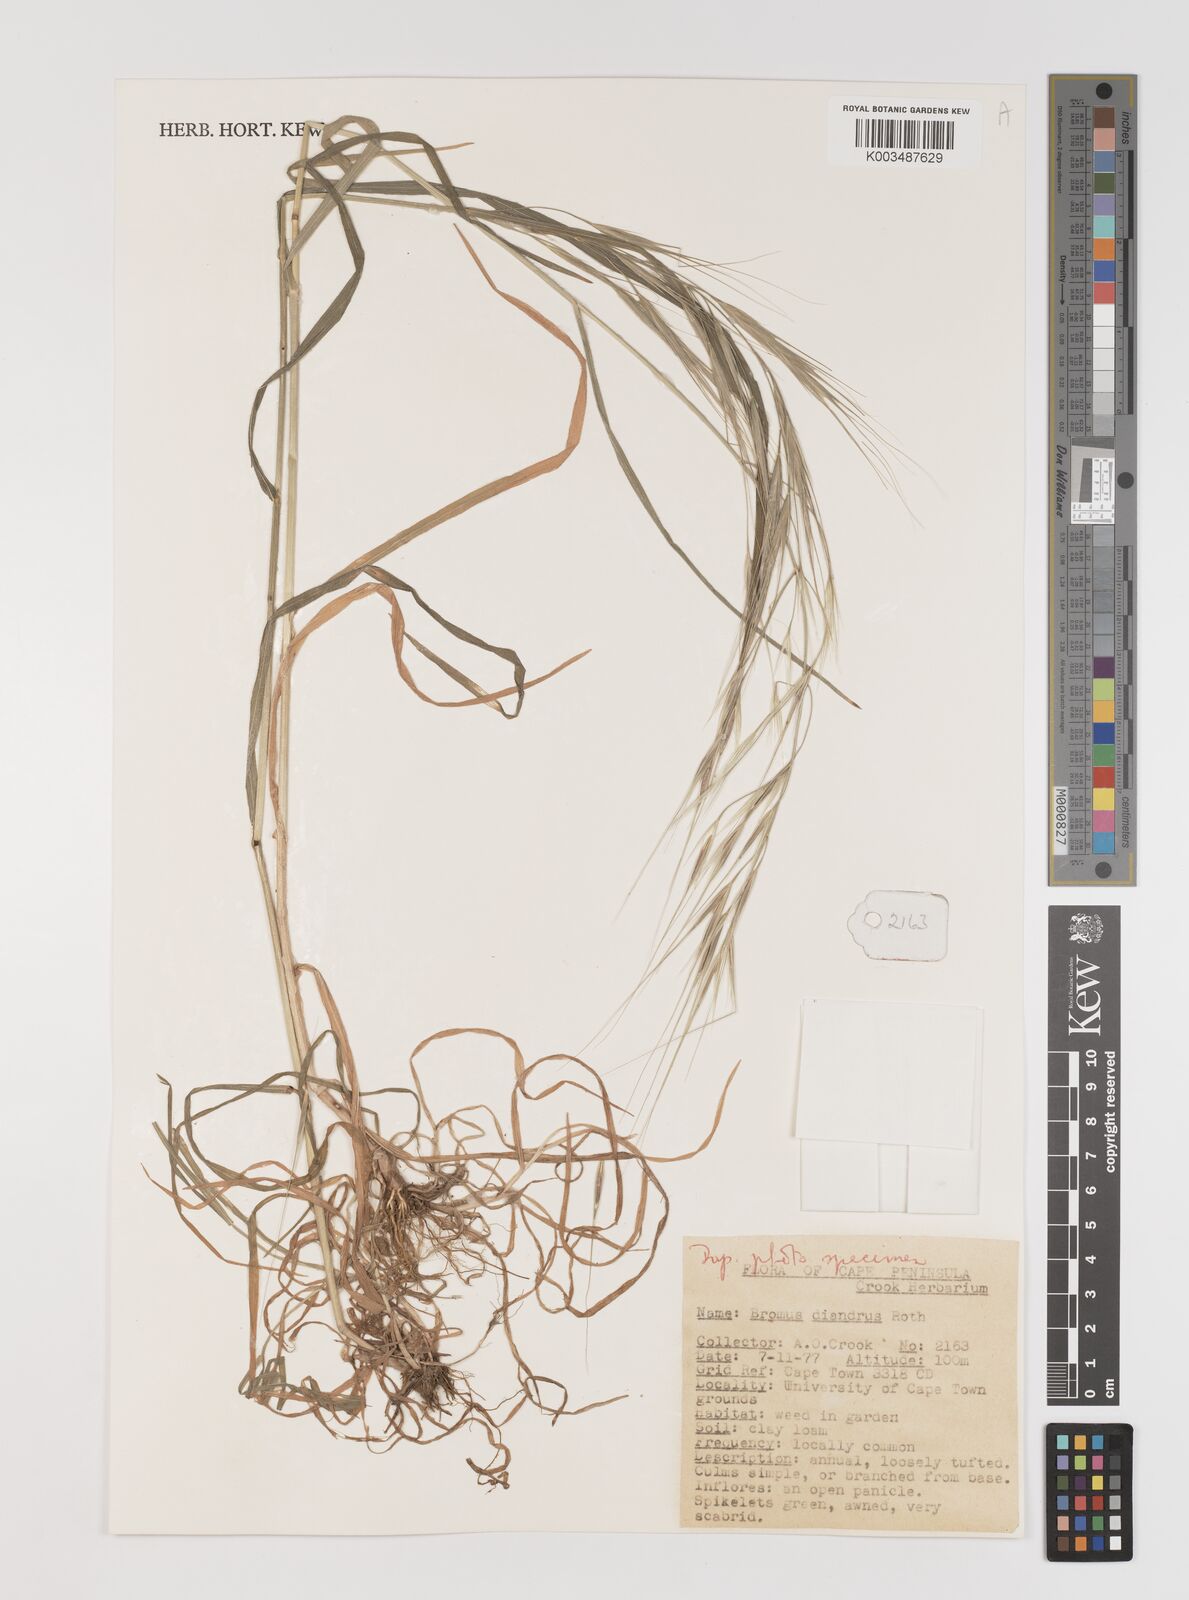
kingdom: Plantae
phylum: Tracheophyta
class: Liliopsida
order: Poales
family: Poaceae
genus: Bromus
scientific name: Bromus diandrus
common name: Ripgut brome
